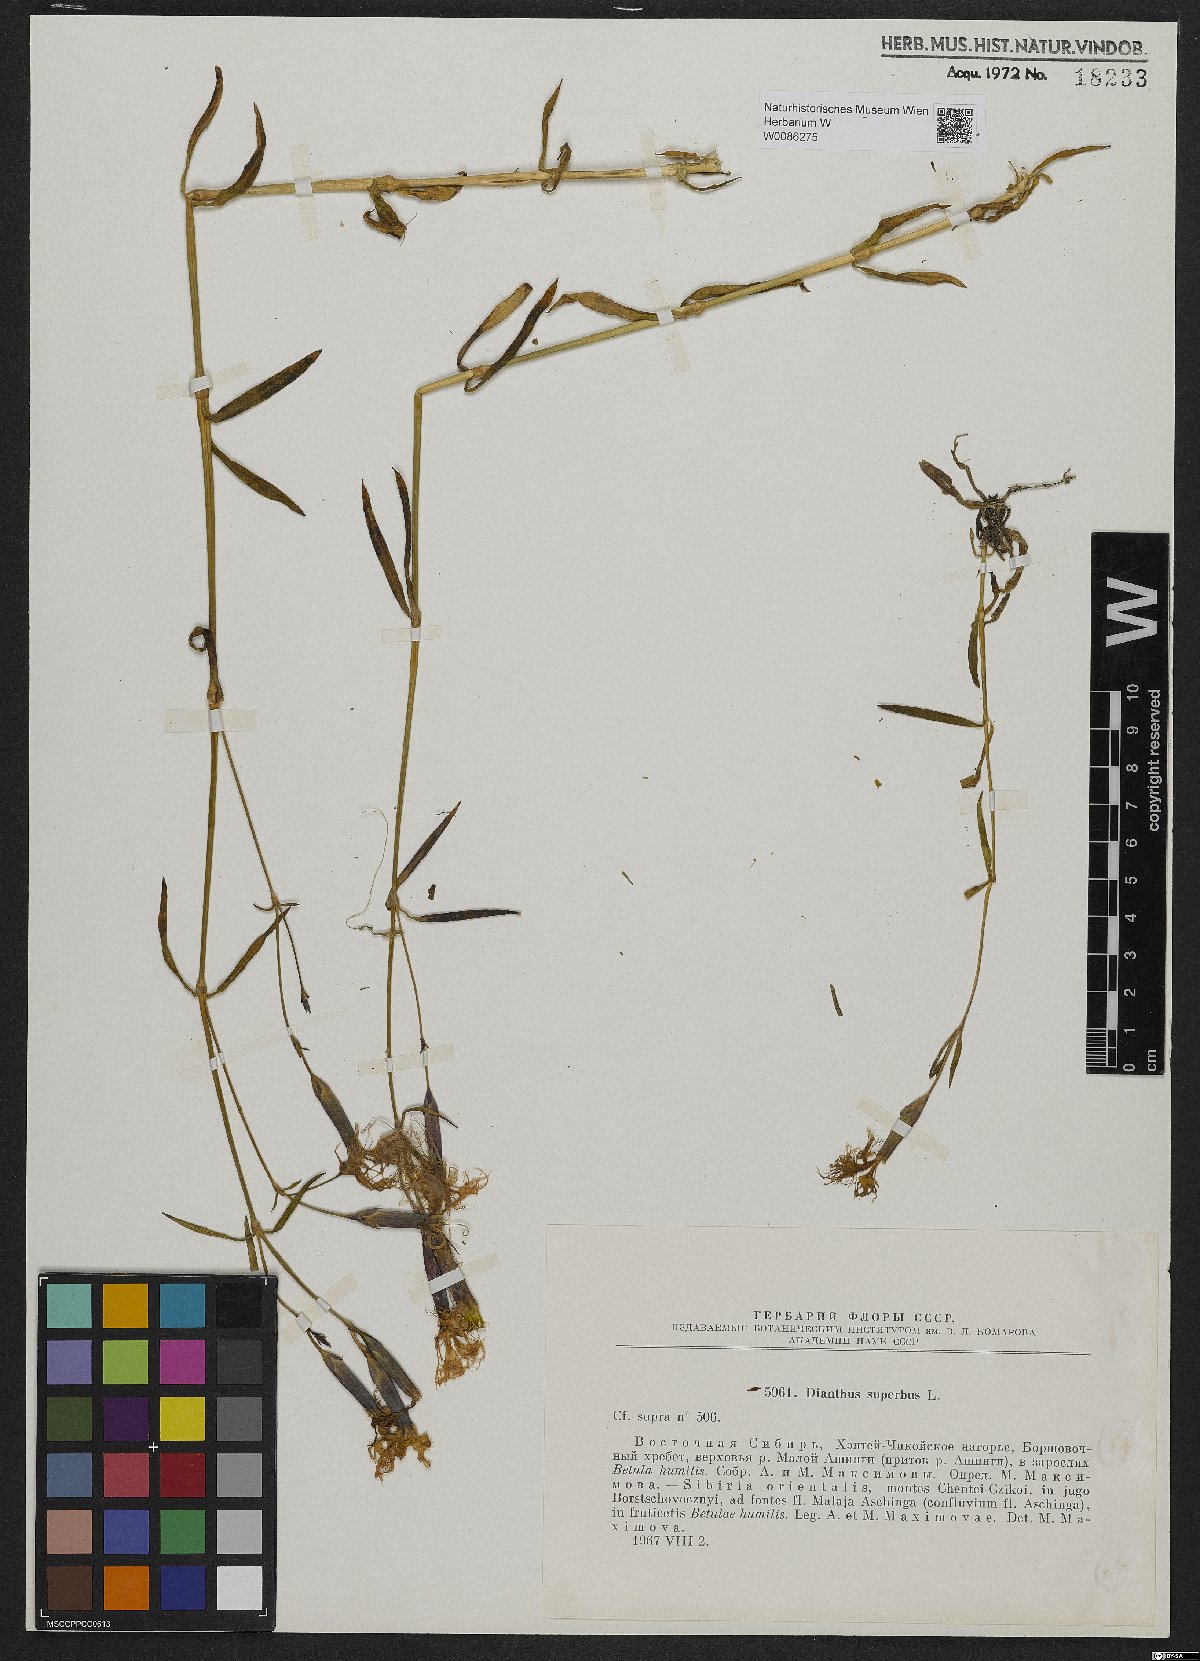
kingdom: Plantae
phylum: Tracheophyta
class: Magnoliopsida
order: Caryophyllales
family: Caryophyllaceae
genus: Dianthus
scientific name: Dianthus superbus
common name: Fringed pink
